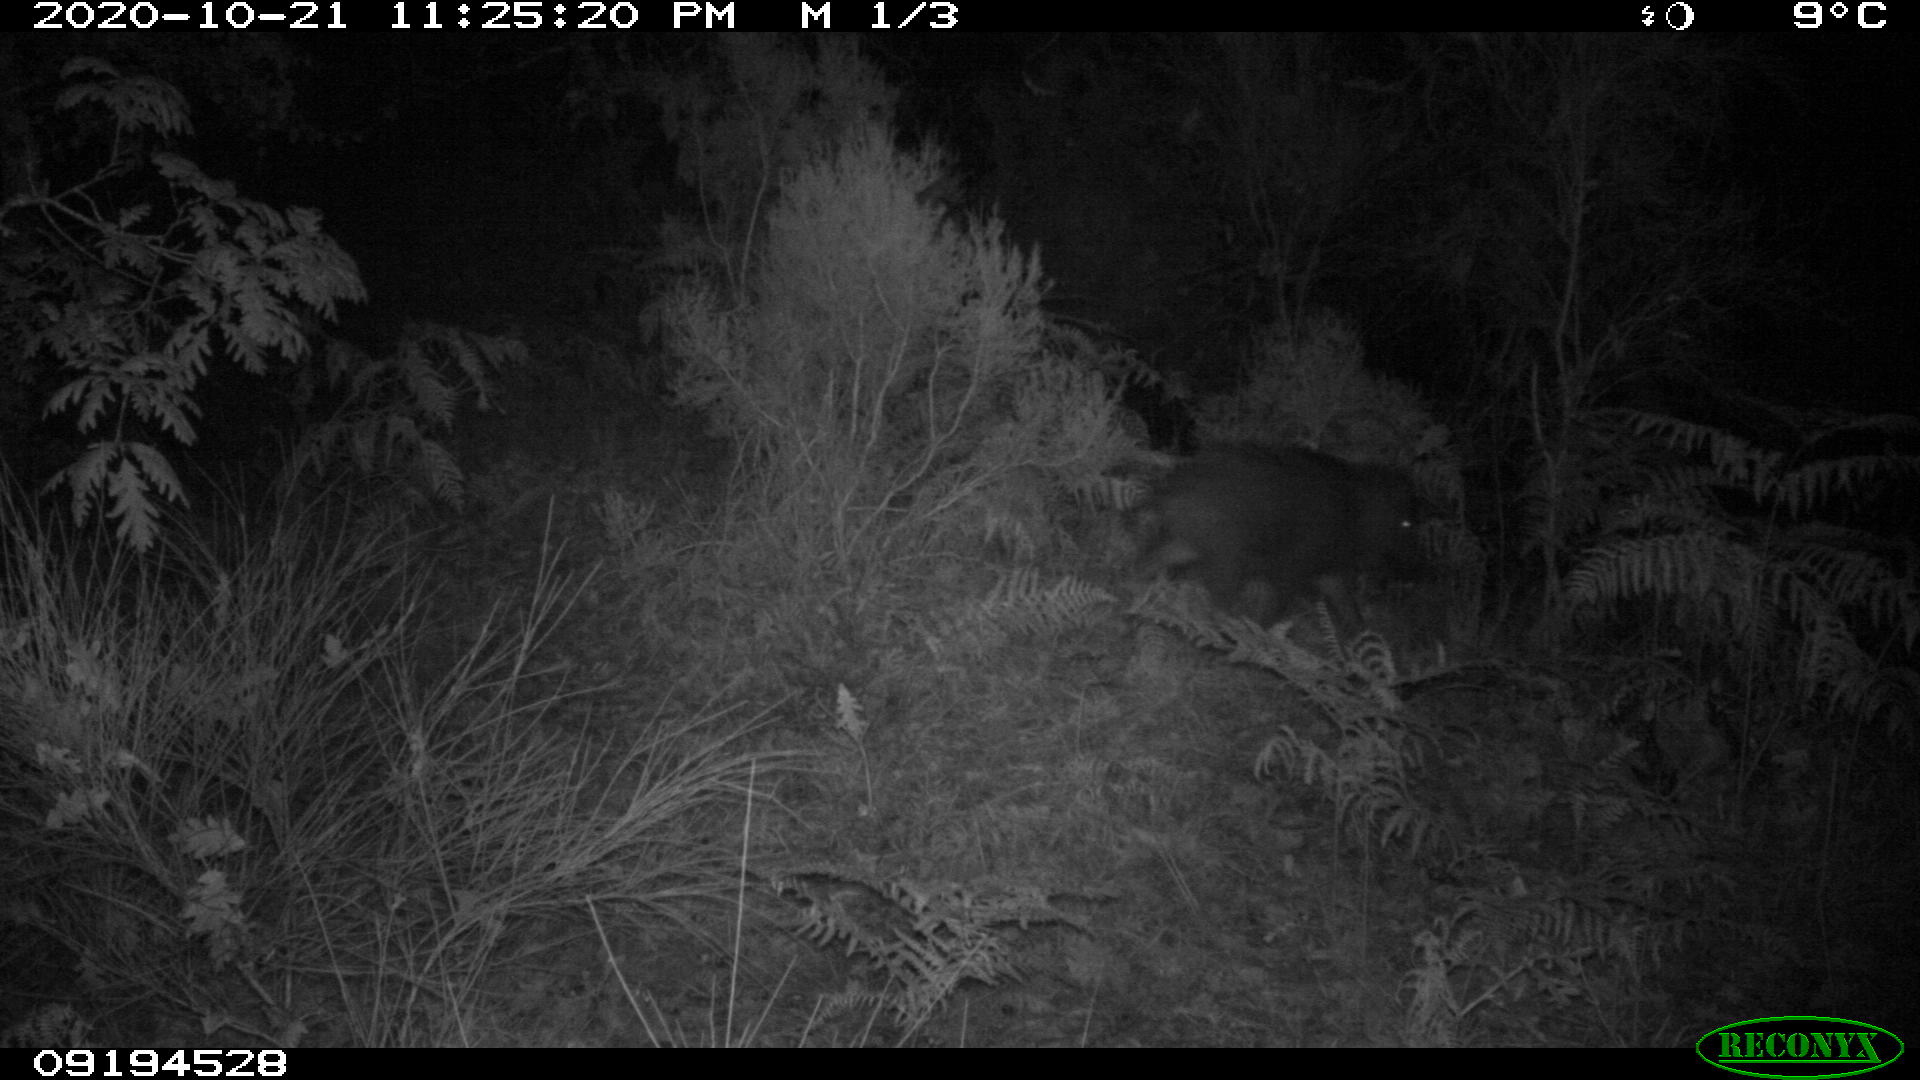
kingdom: Animalia
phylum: Chordata
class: Mammalia
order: Artiodactyla
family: Suidae
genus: Sus
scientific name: Sus scrofa
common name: Wild boar
